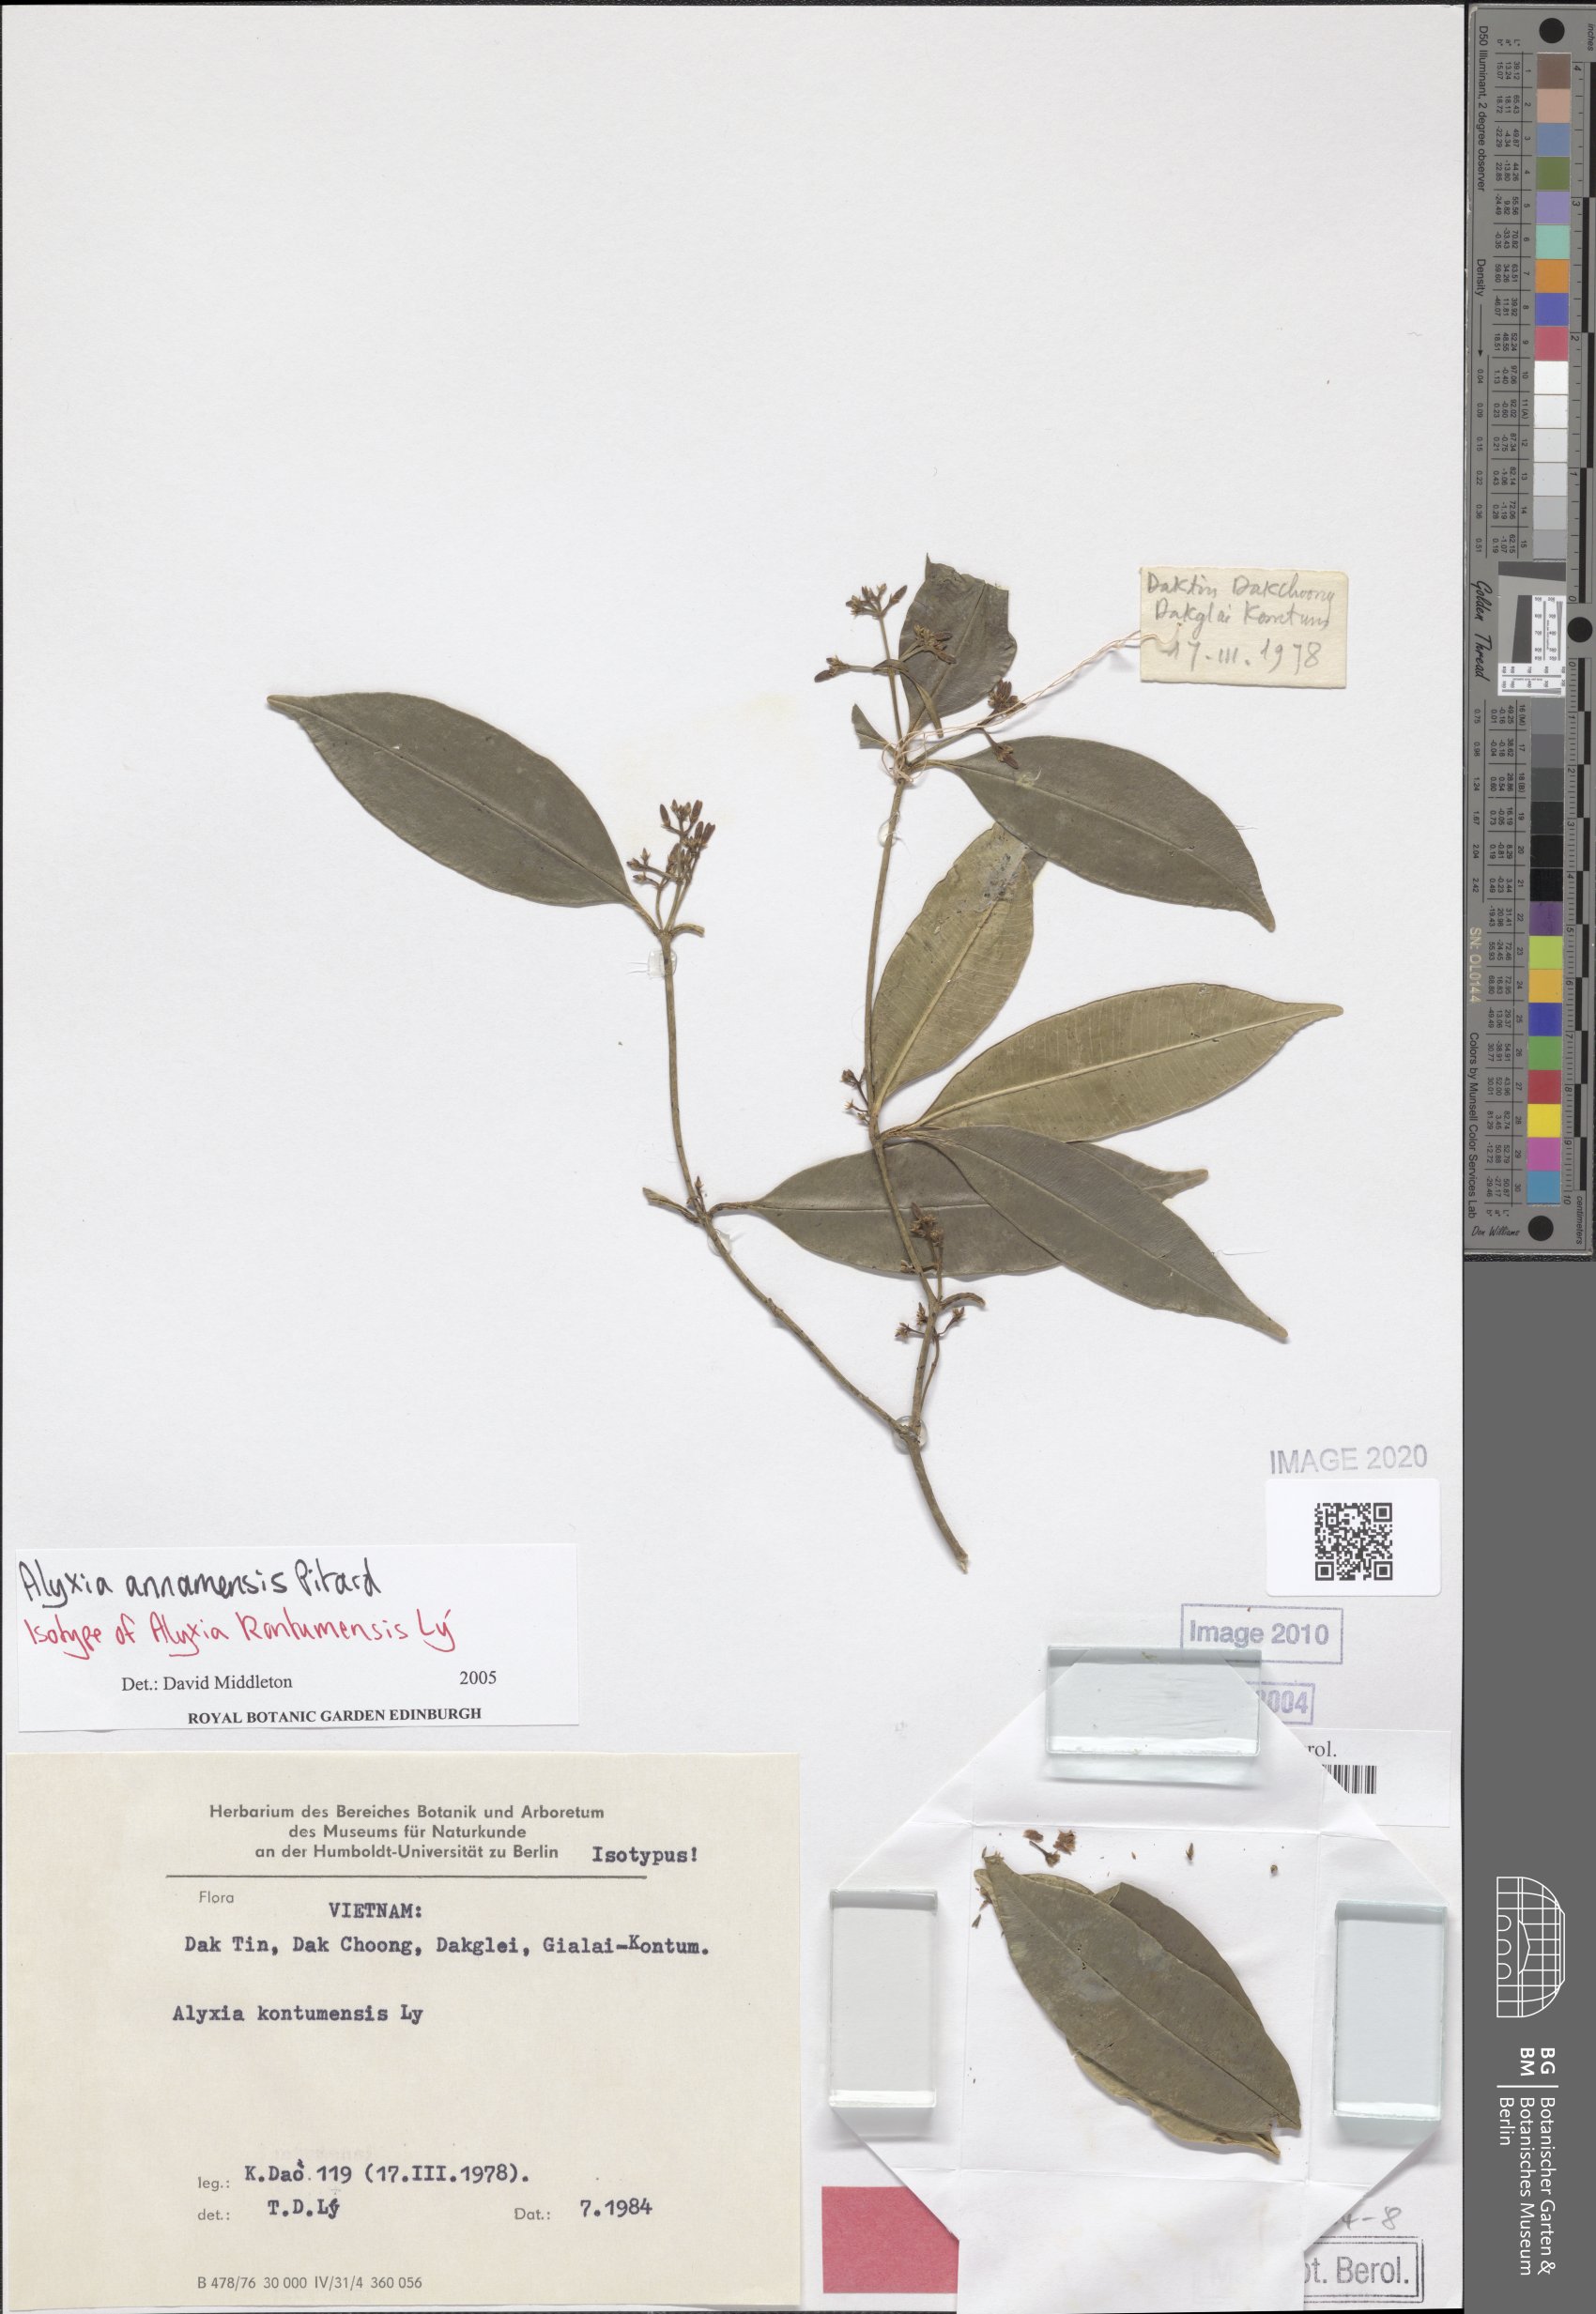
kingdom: Plantae
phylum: Tracheophyta
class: Magnoliopsida
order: Gentianales
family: Apocynaceae
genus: Alyxia
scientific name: Alyxia siamensis
